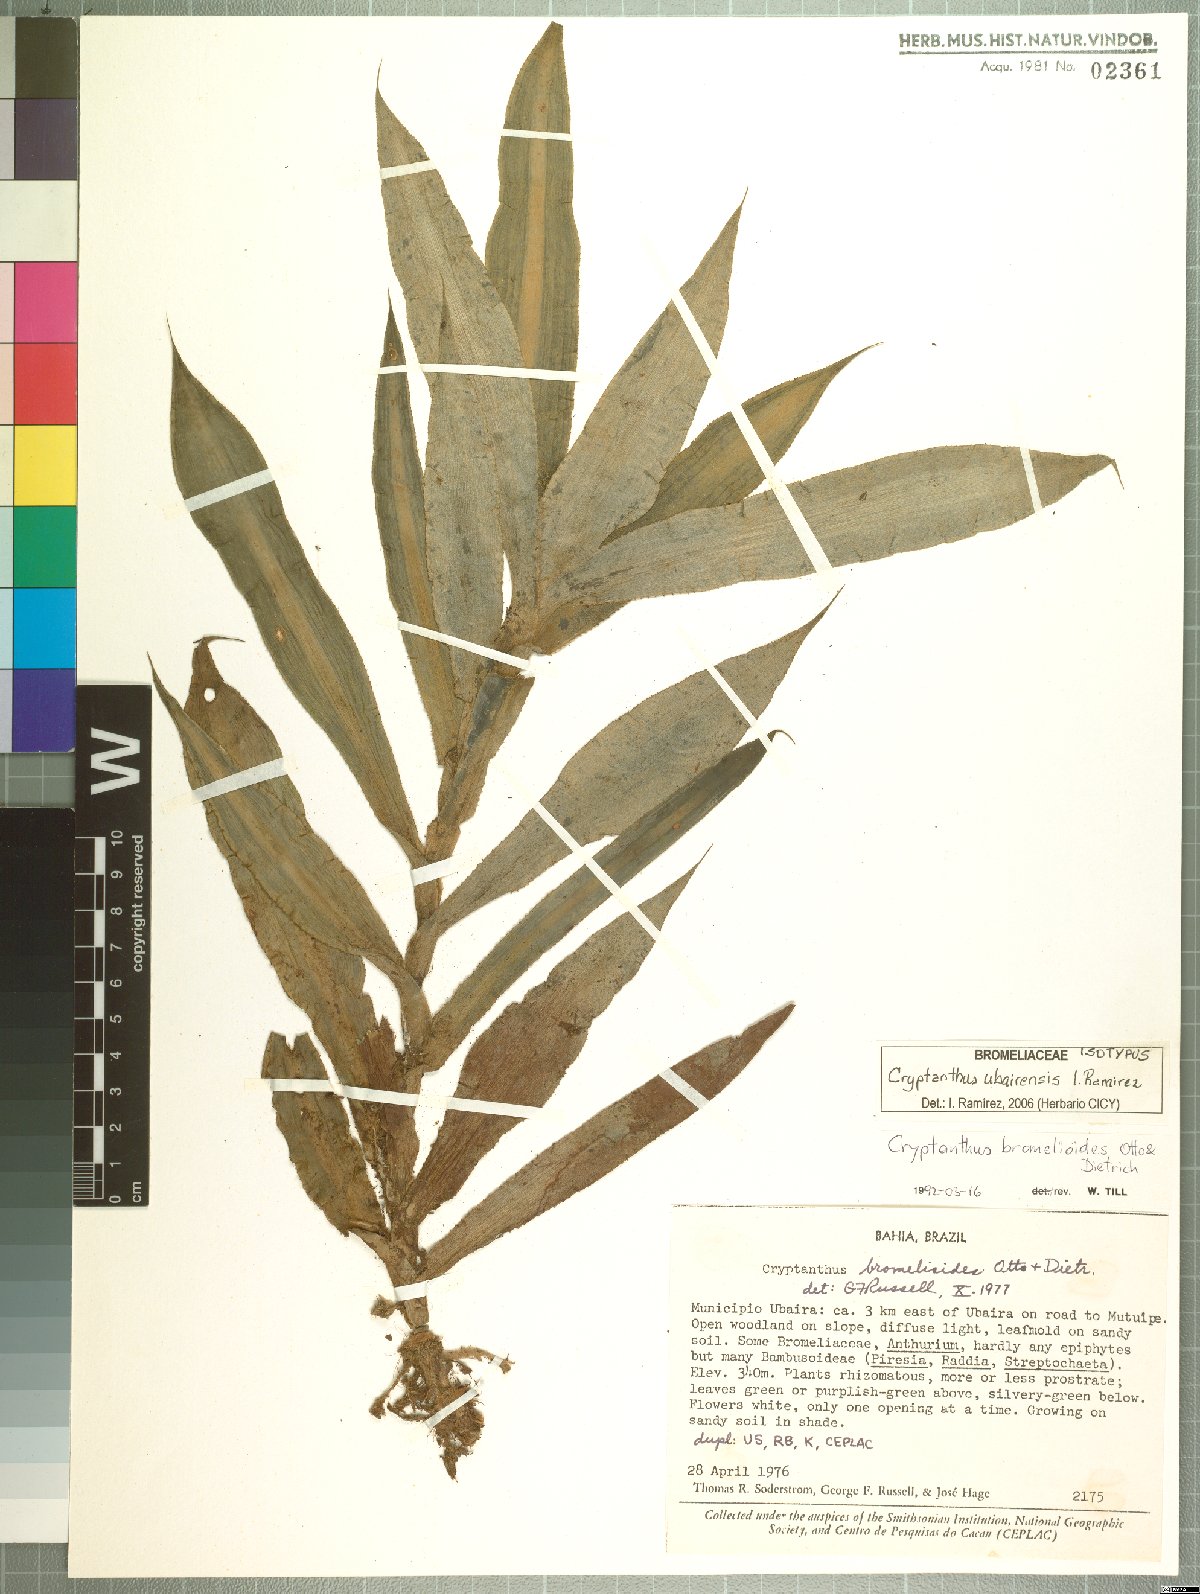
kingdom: Plantae
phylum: Tracheophyta
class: Liliopsida
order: Poales
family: Bromeliaceae
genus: Cryptanthus
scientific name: Cryptanthus ubairensis
